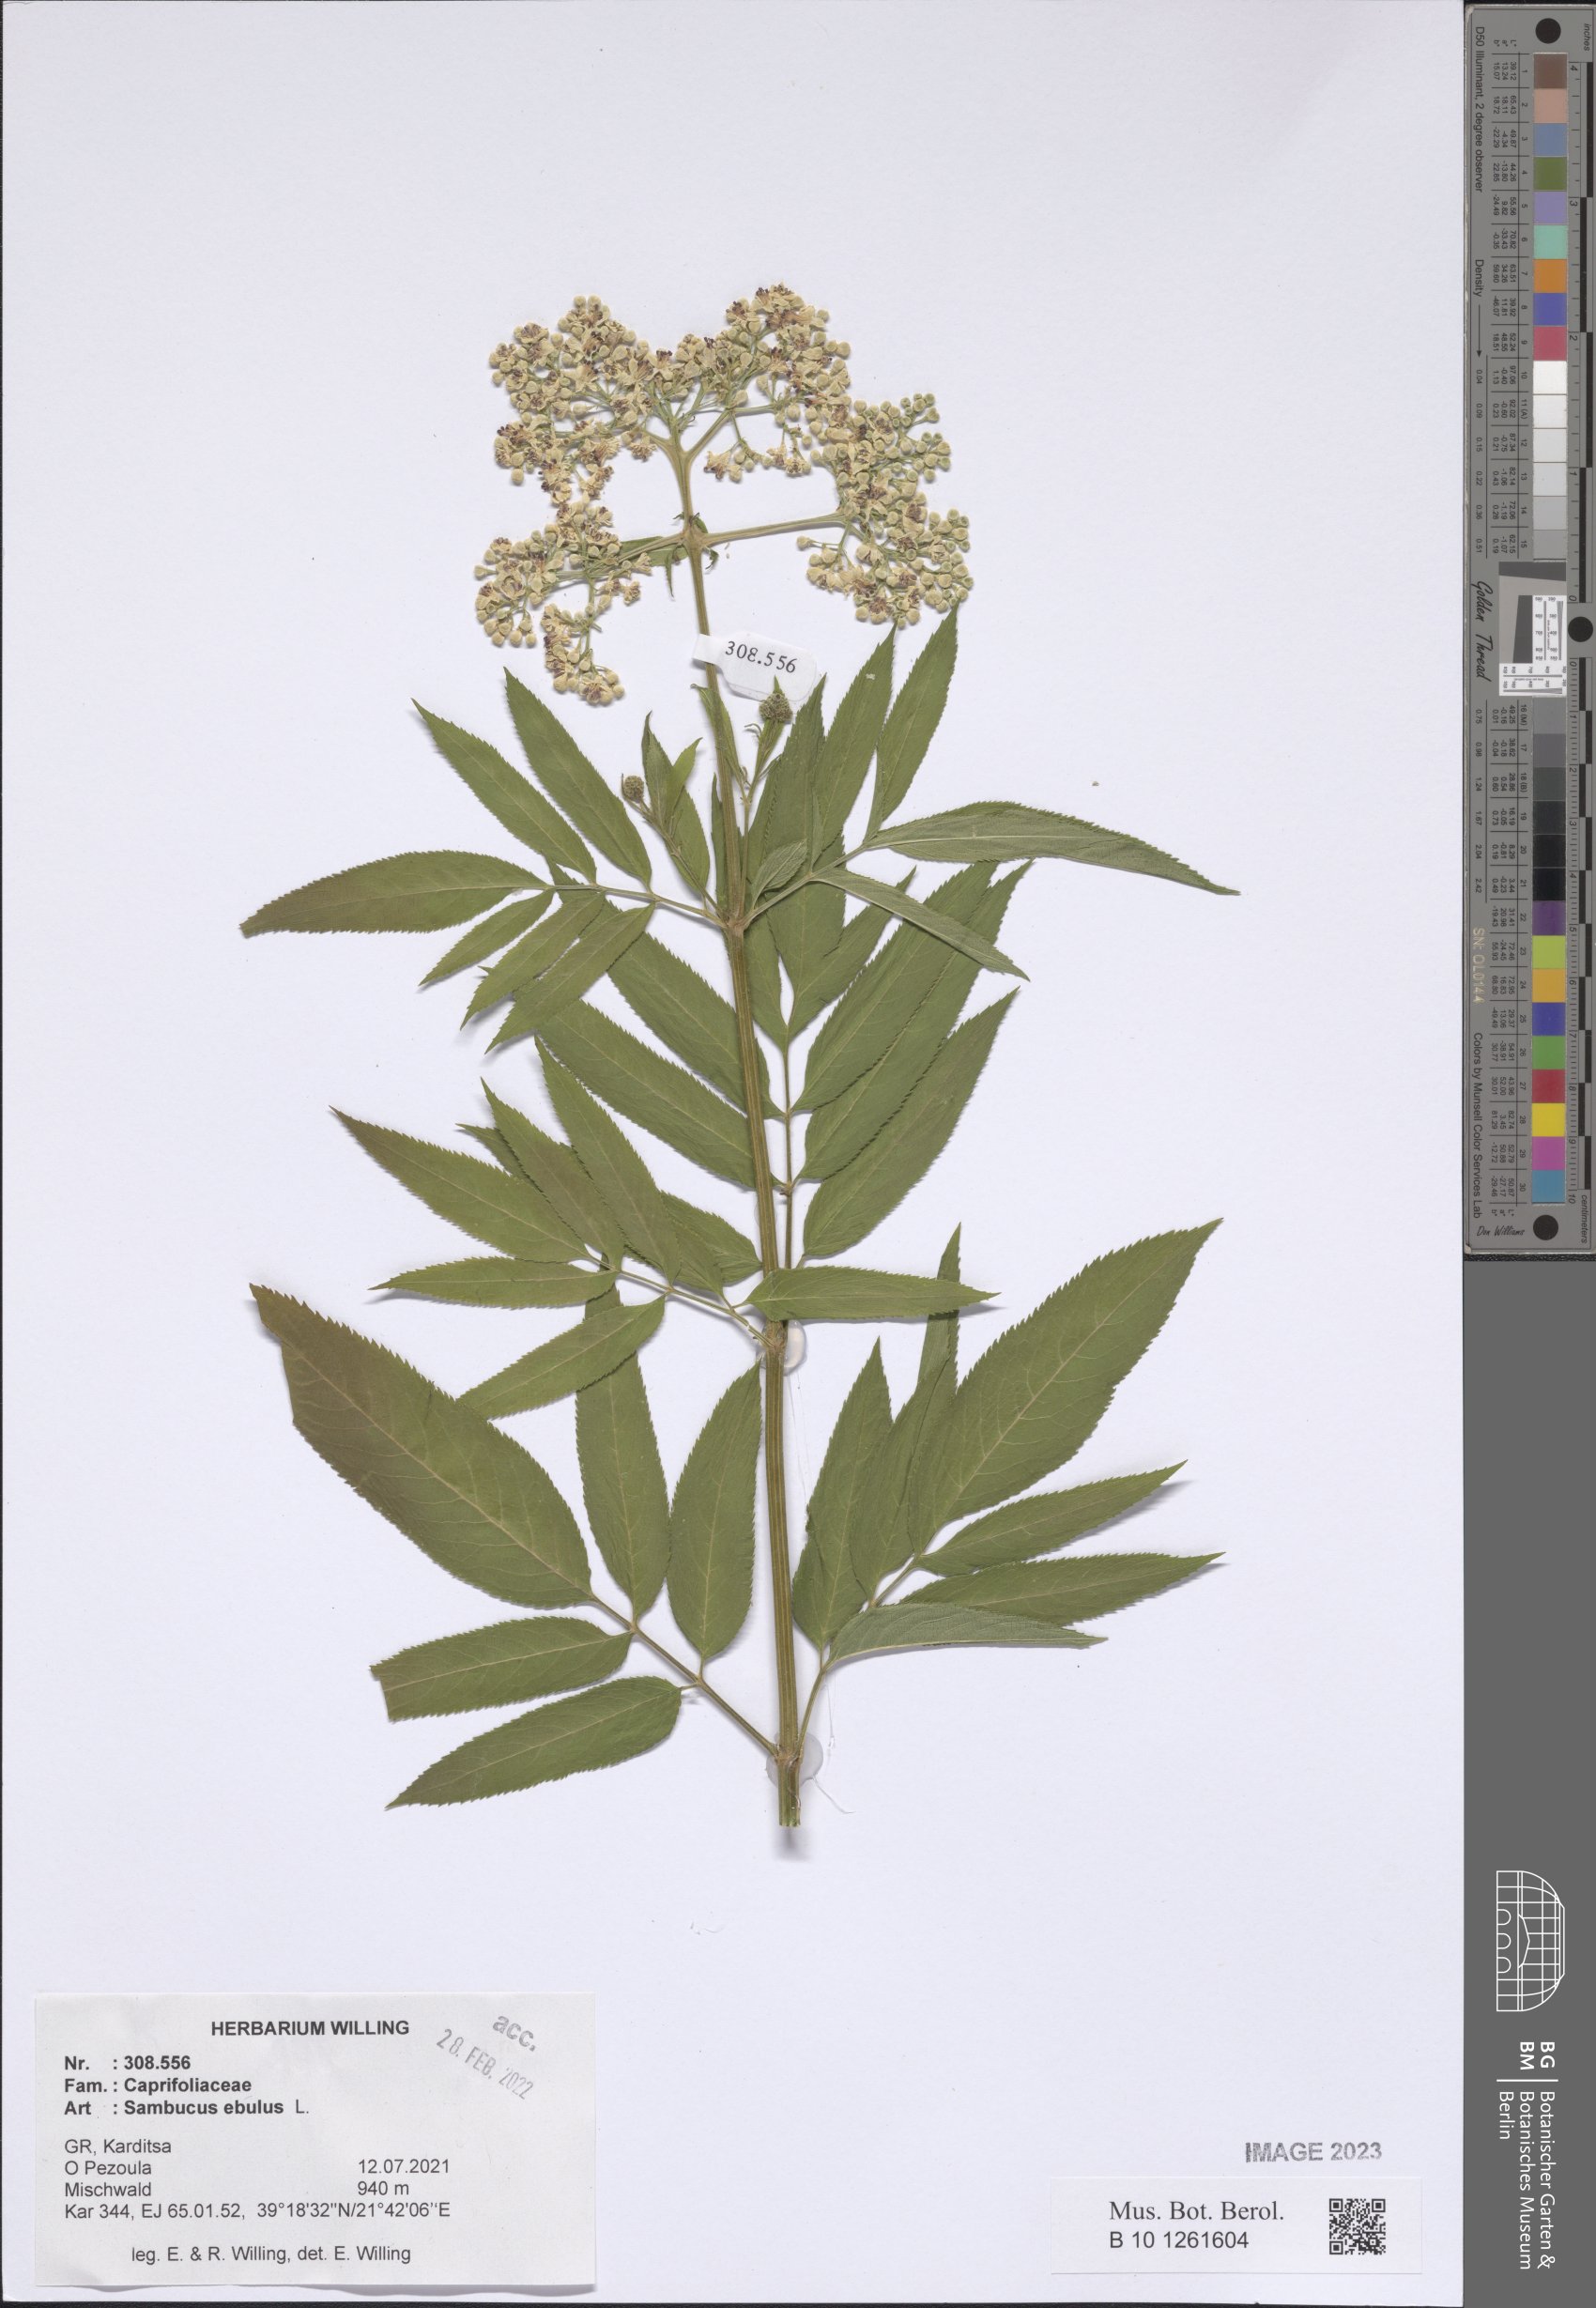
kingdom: Plantae
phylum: Tracheophyta
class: Magnoliopsida
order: Dipsacales
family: Viburnaceae
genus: Sambucus
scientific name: Sambucus ebulus
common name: Dwarf elder
